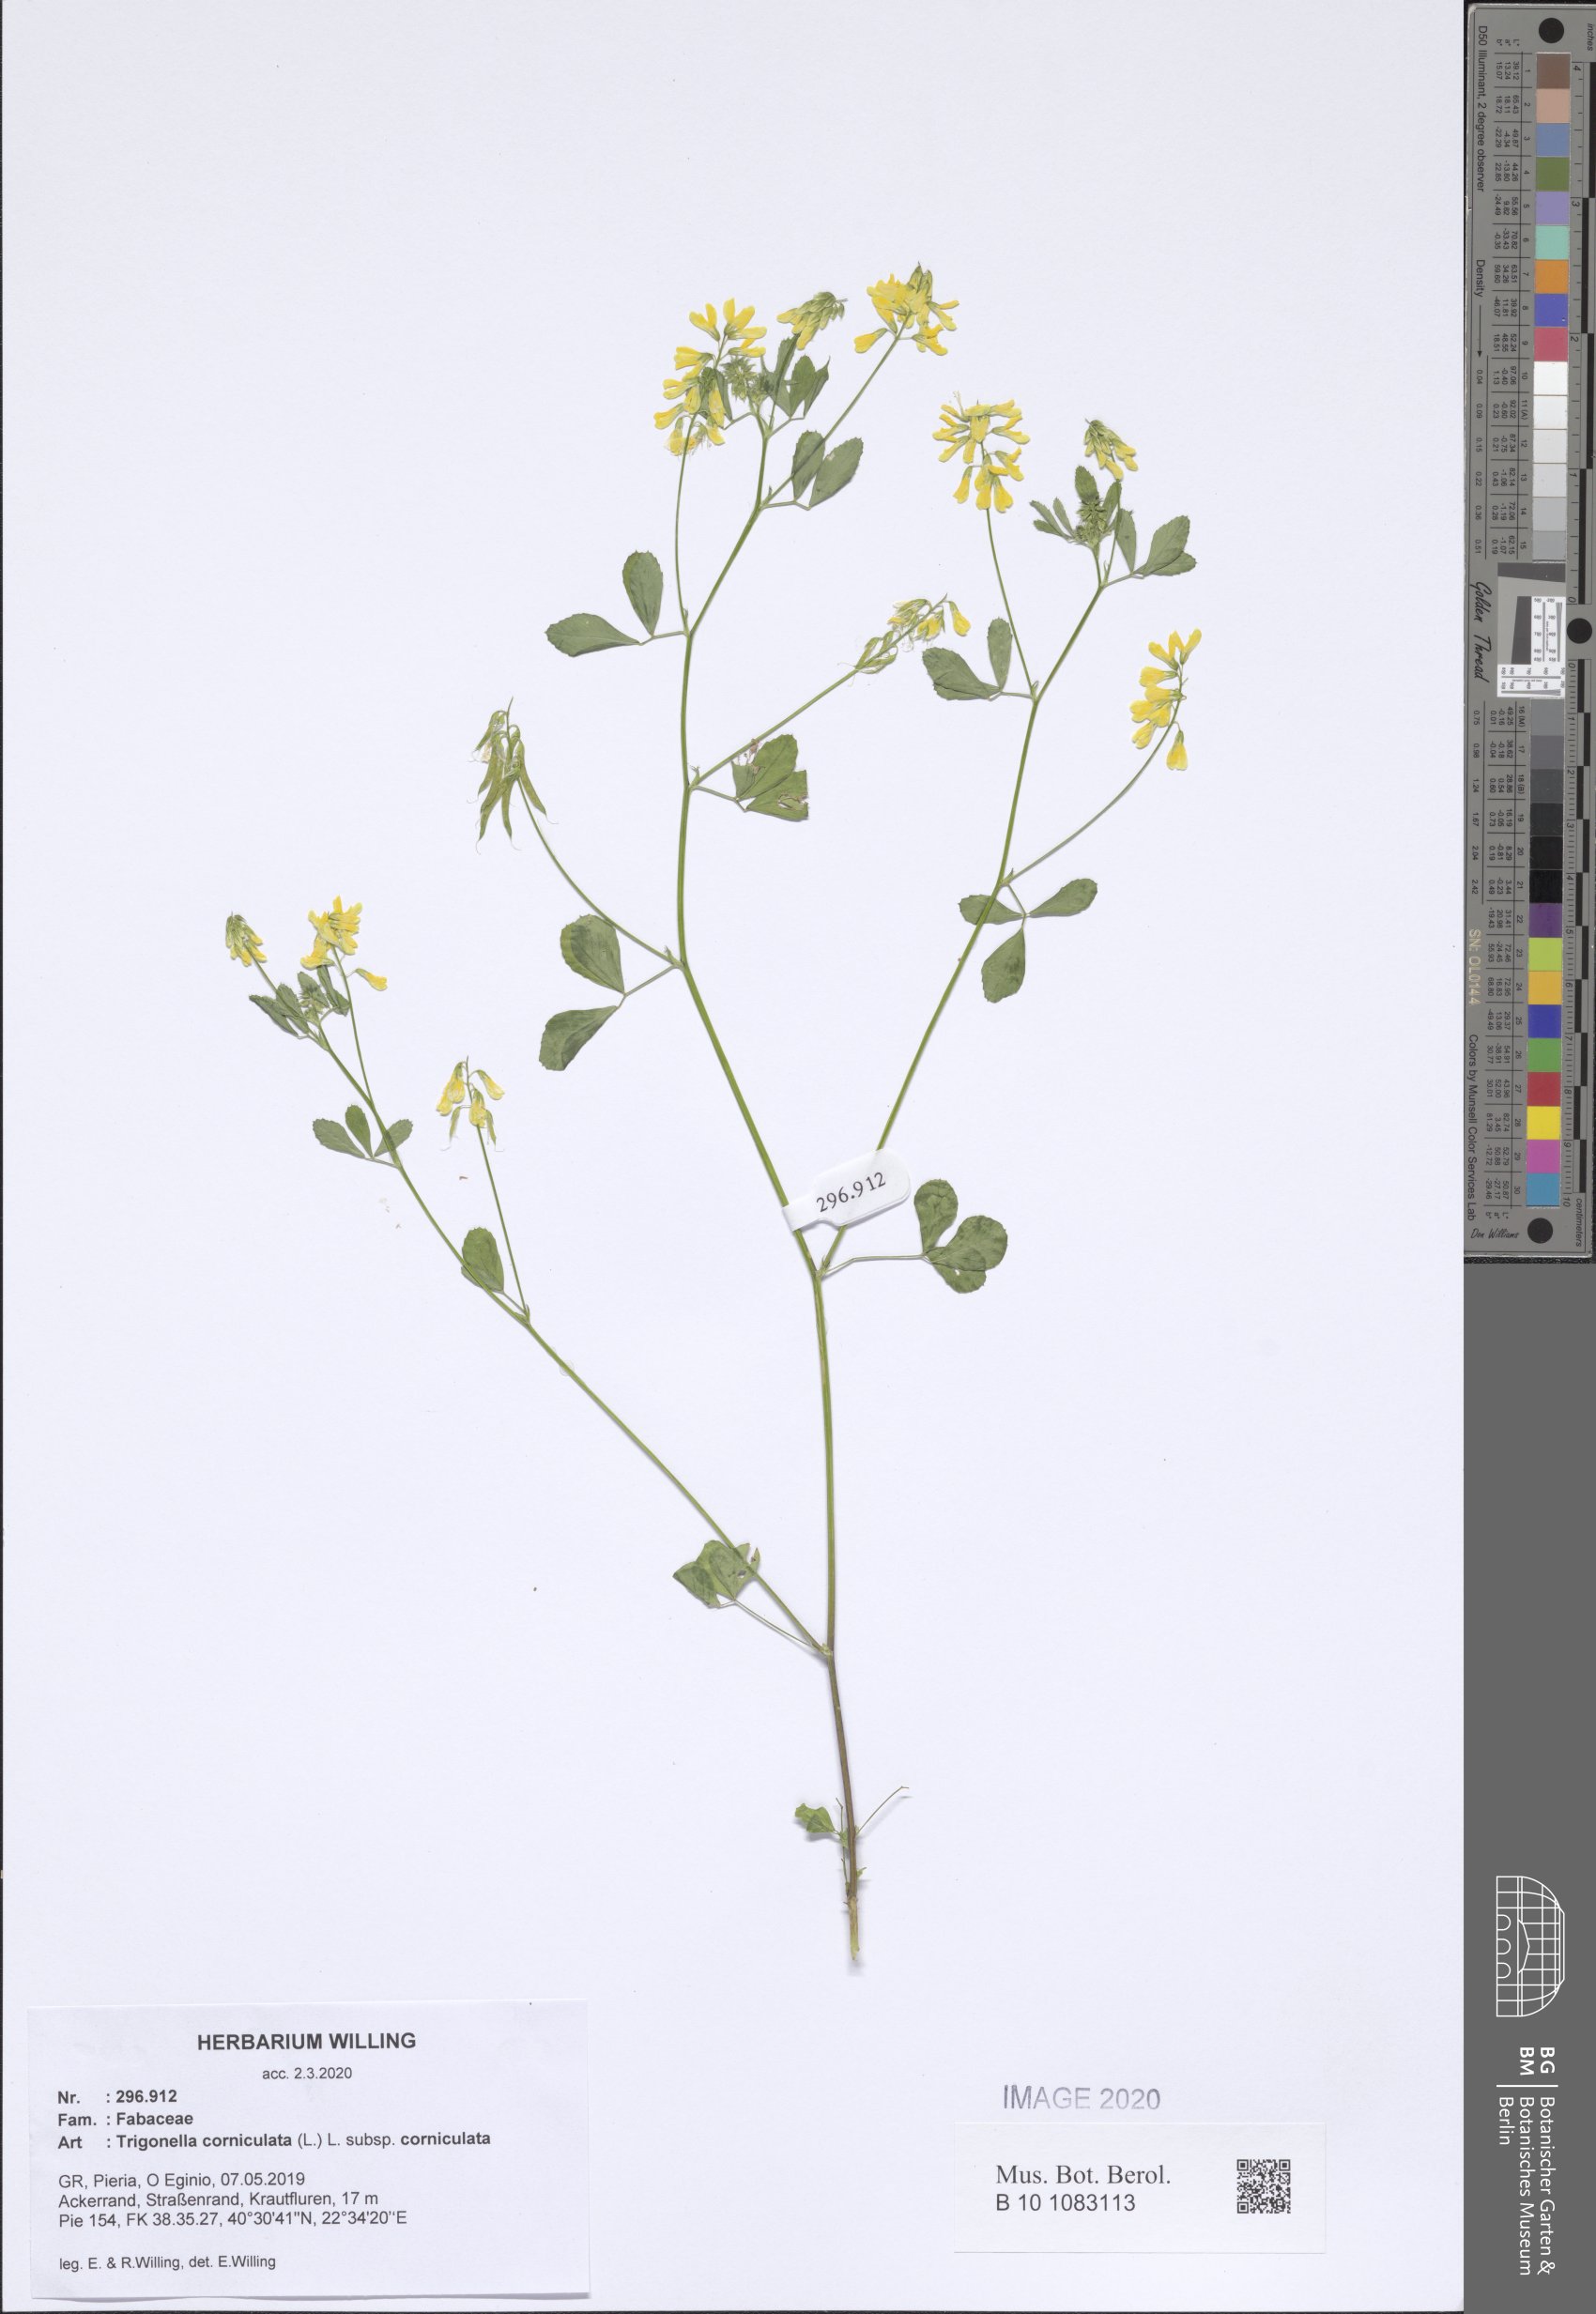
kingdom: Plantae
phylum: Tracheophyta
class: Magnoliopsida
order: Fabales
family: Fabaceae
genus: Trigonella
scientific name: Trigonella corniculata
